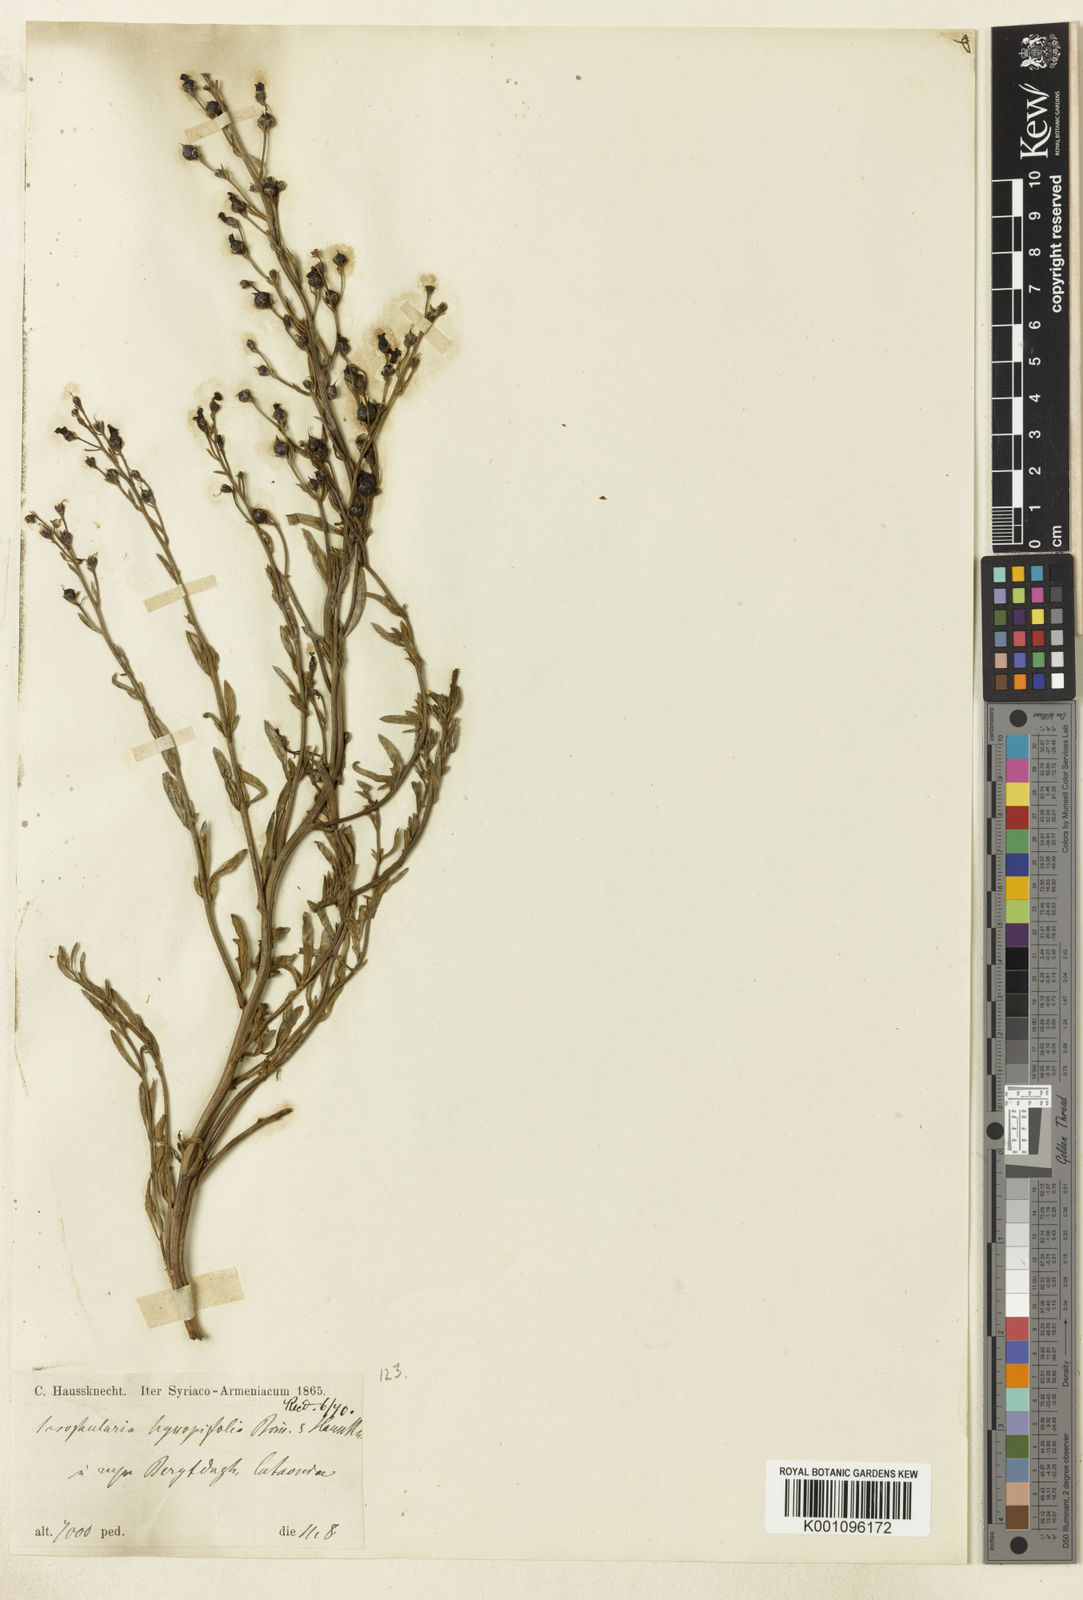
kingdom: Plantae
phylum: Tracheophyta
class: Magnoliopsida
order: Lamiales
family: Scrophulariaceae
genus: Scrophularia
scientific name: Scrophularia hyssopifolia
